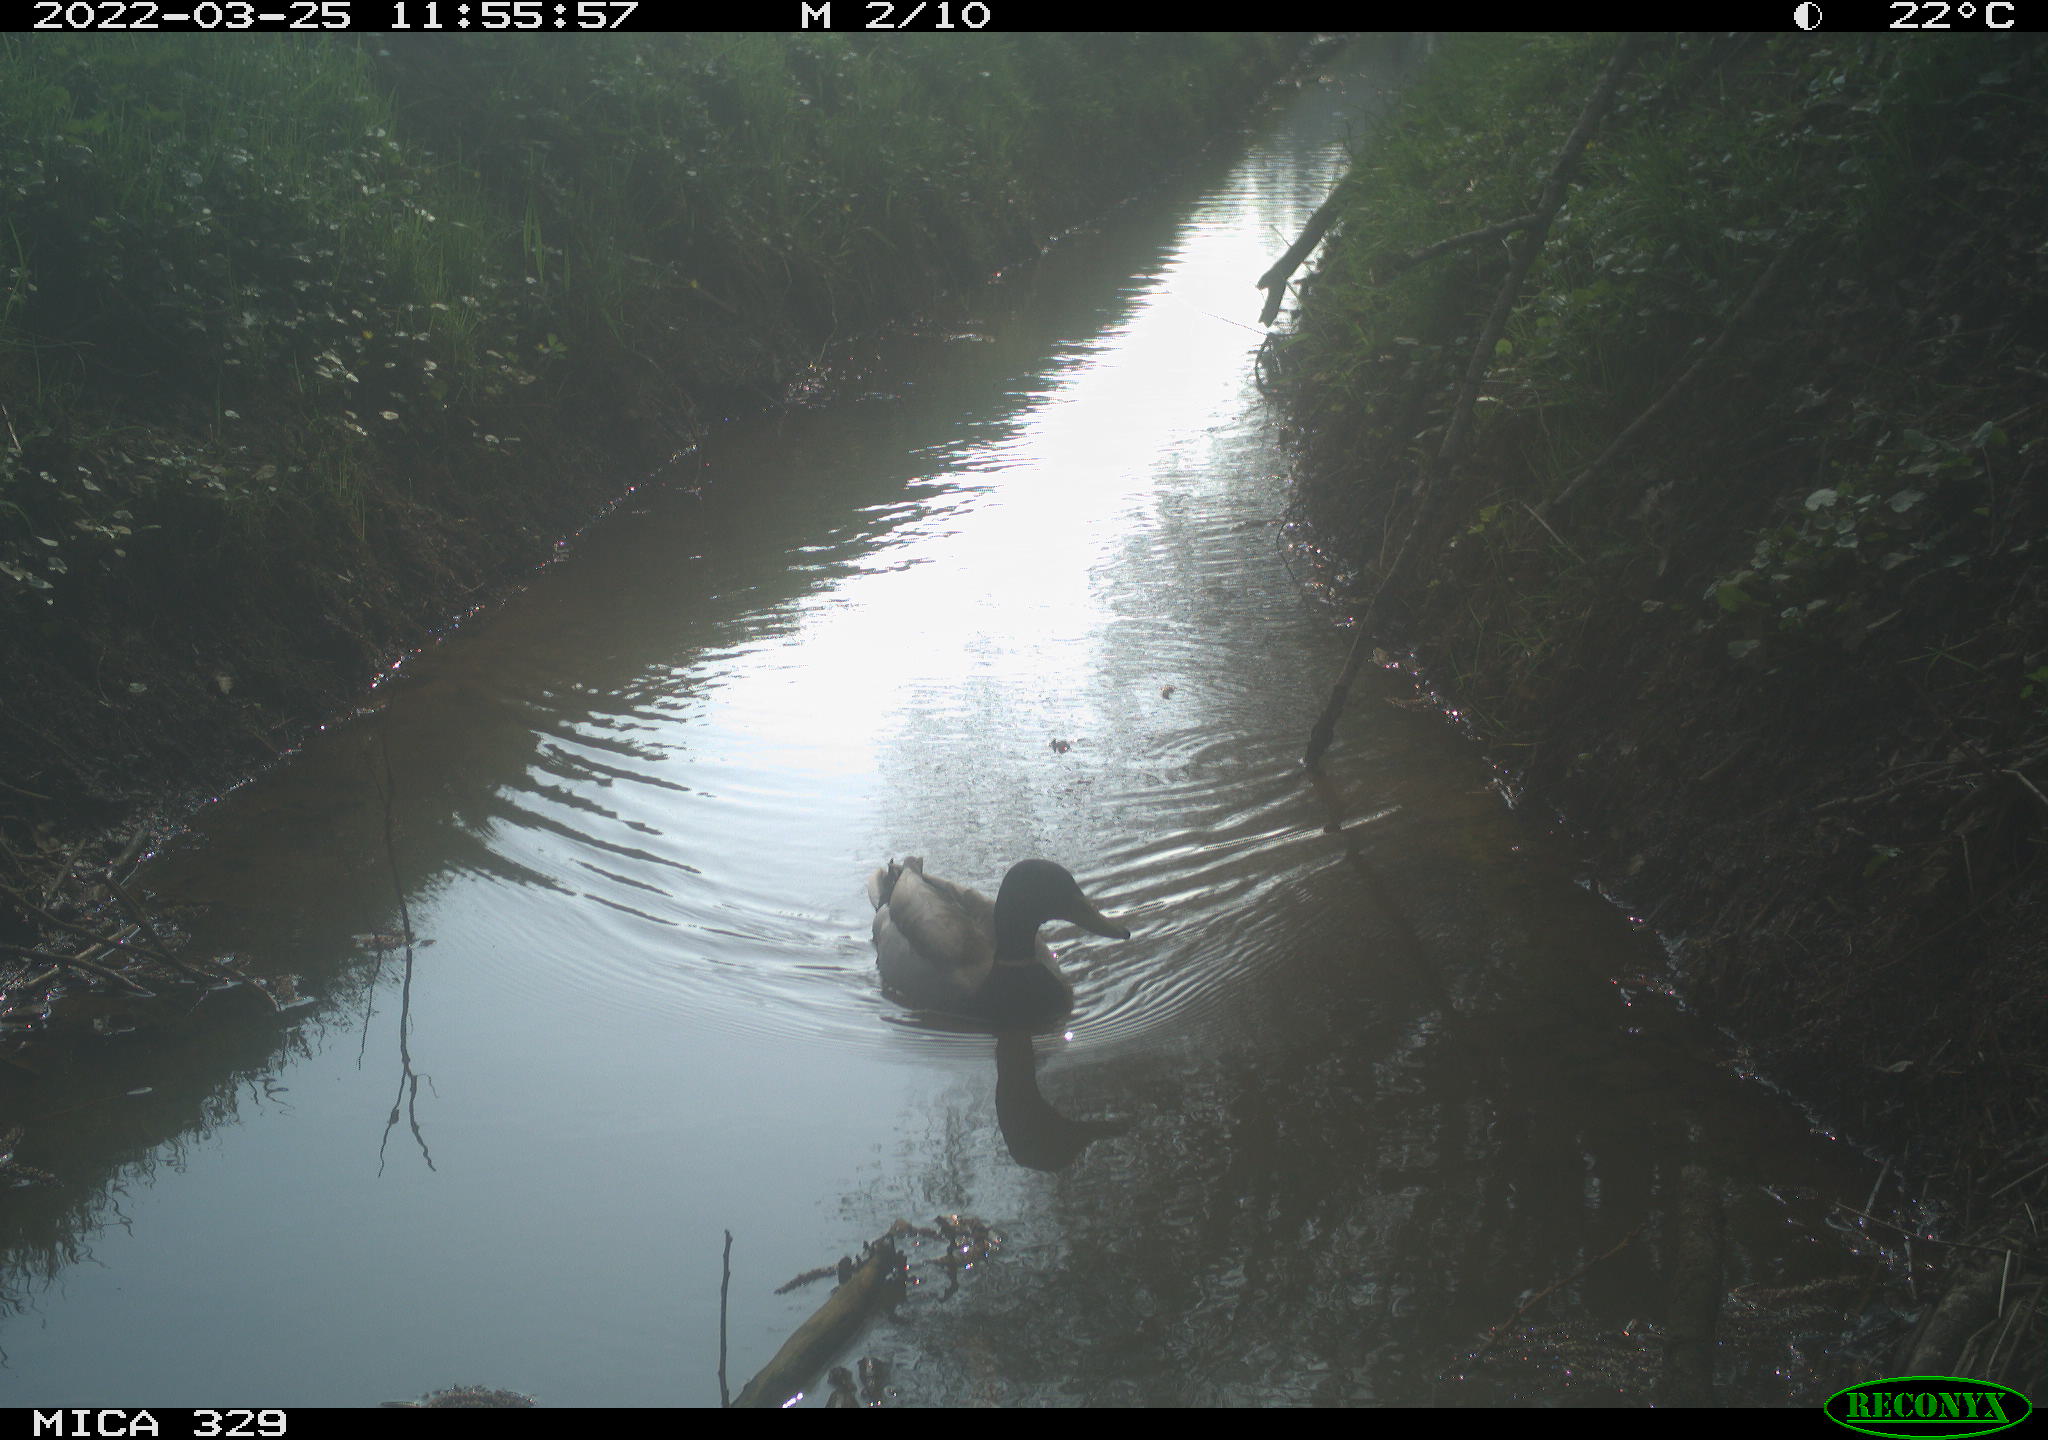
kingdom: Animalia
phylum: Chordata
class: Aves
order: Anseriformes
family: Anatidae
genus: Anas
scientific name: Anas platyrhynchos
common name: Mallard
